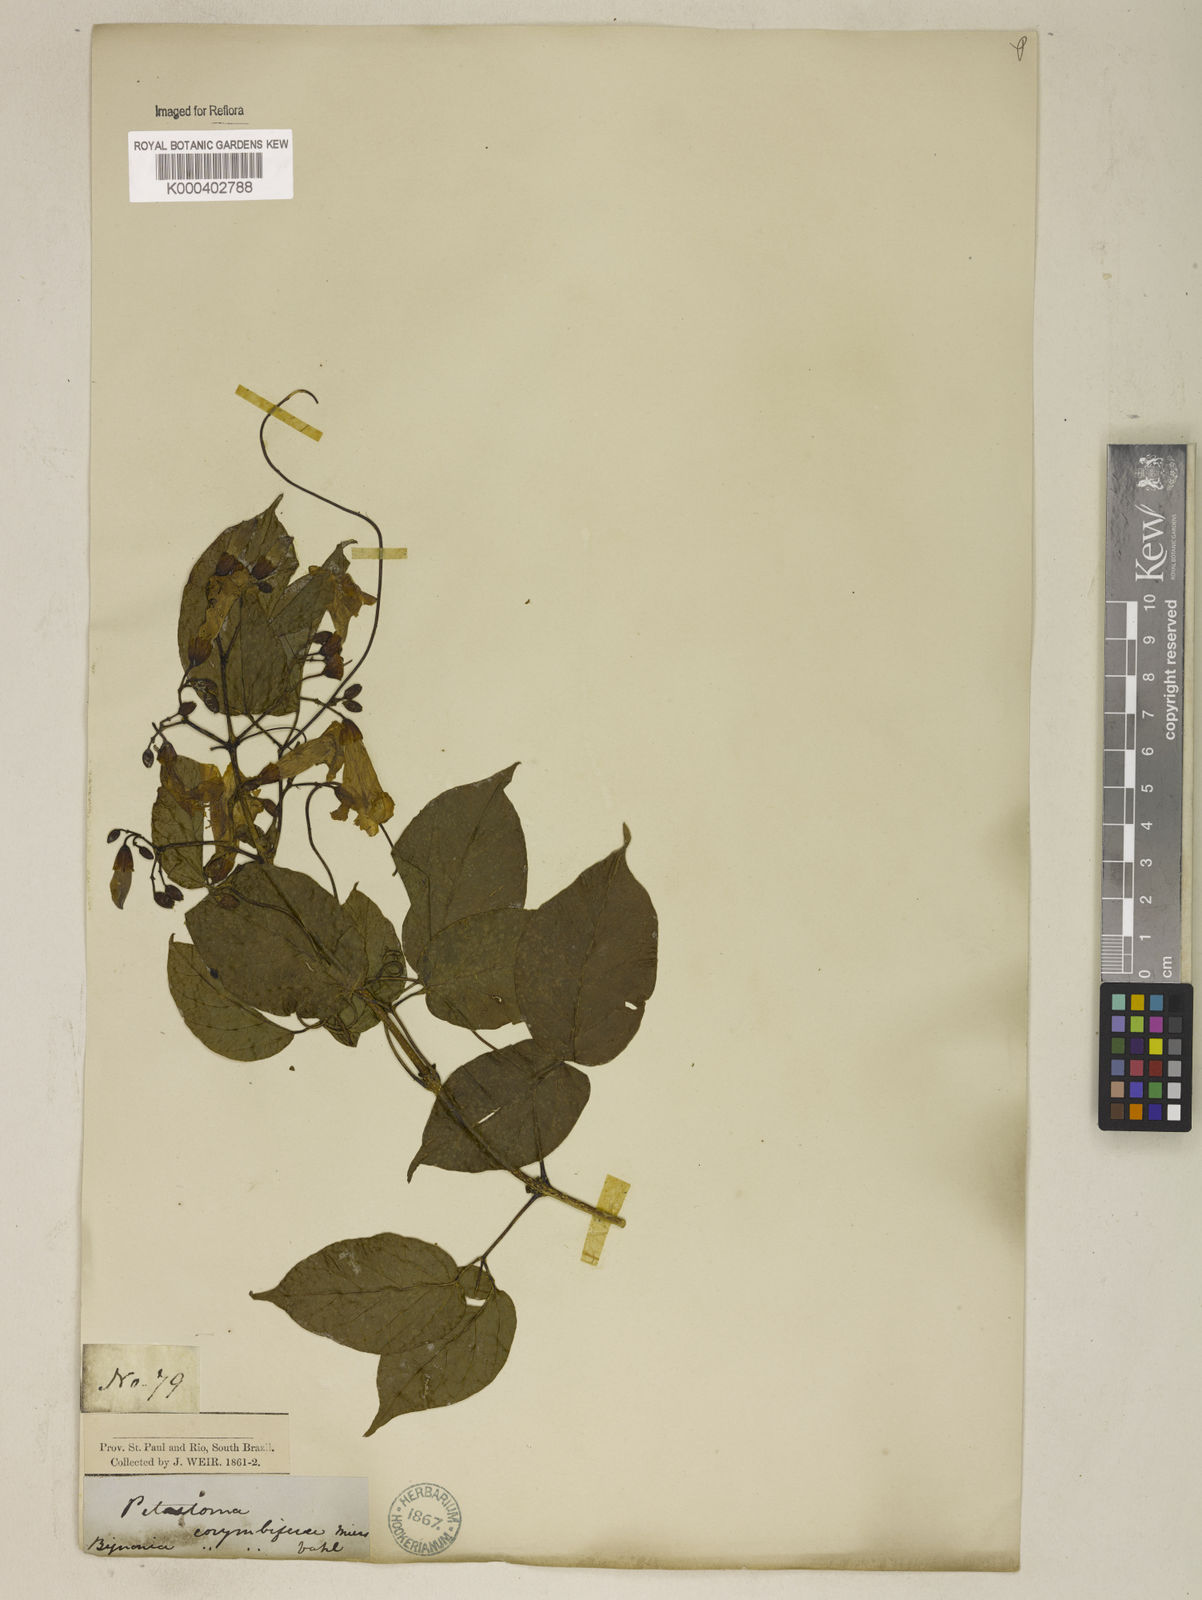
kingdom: Plantae
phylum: Tracheophyta
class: Magnoliopsida
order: Lamiales
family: Bignoniaceae
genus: Tanaecium
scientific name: Tanaecium selloi
